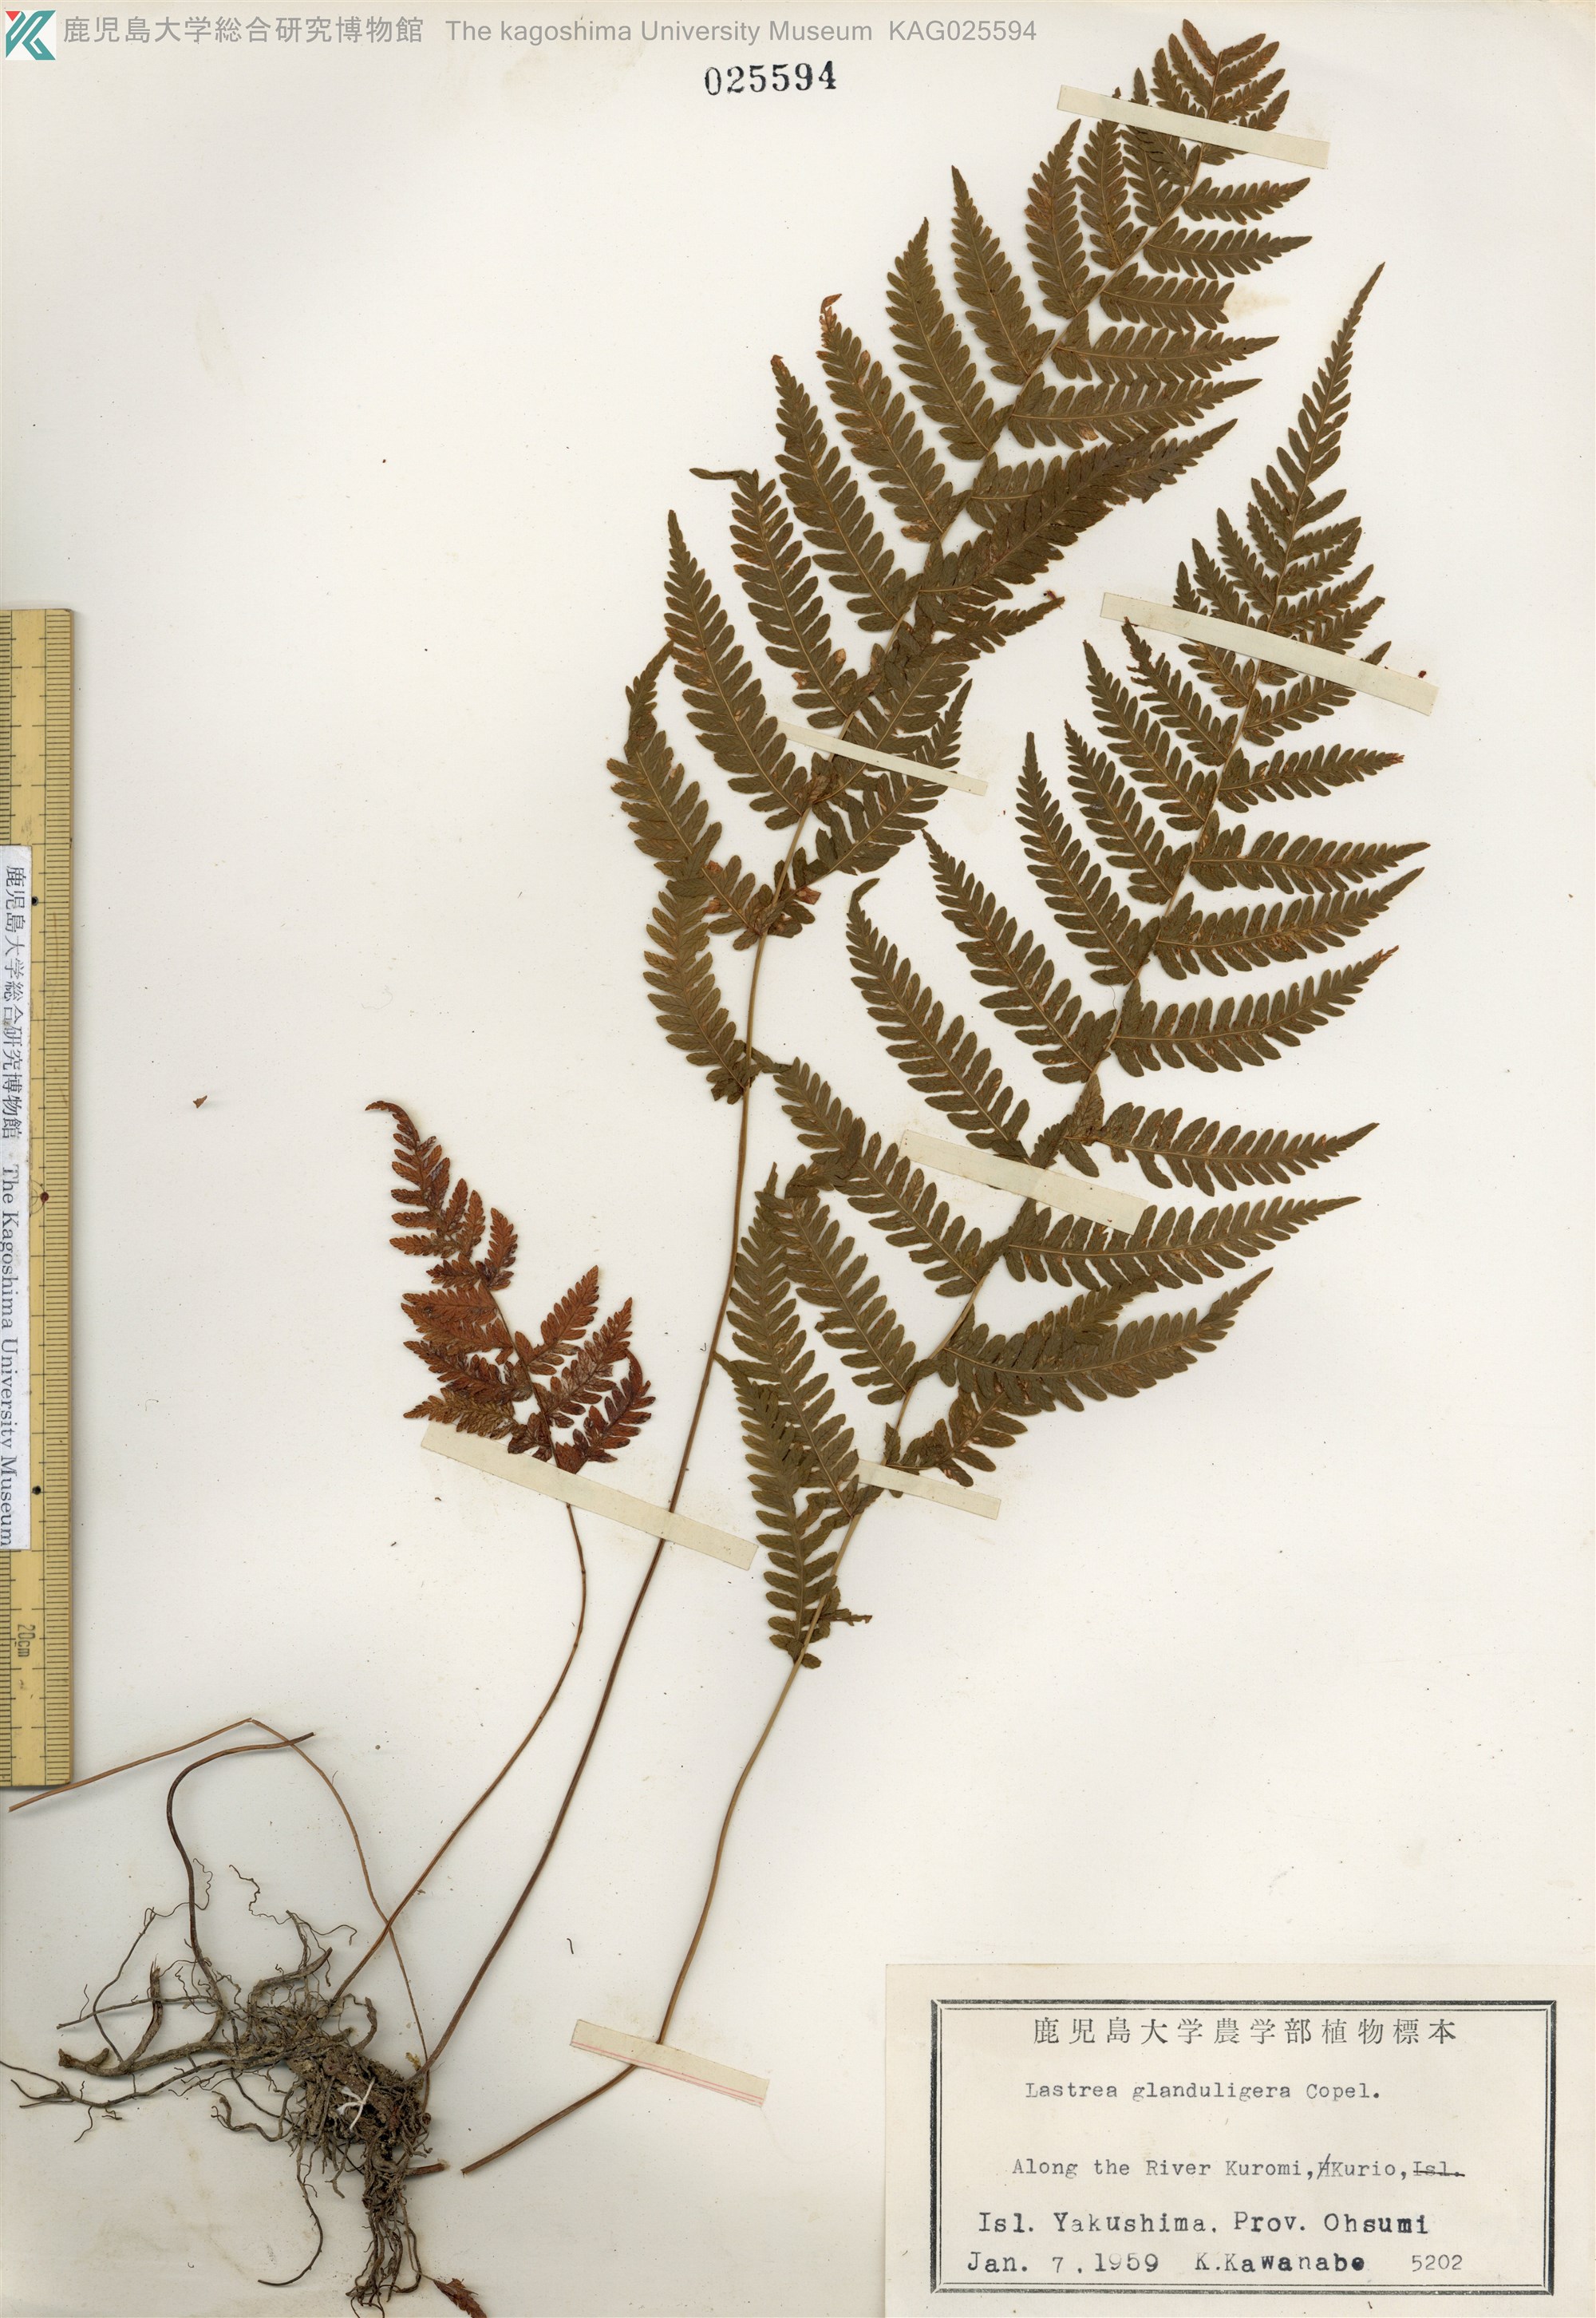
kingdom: Plantae
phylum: Tracheophyta
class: Polypodiopsida
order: Polypodiales
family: Thelypteridaceae
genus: Amauropelta
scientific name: Amauropelta glanduligera
